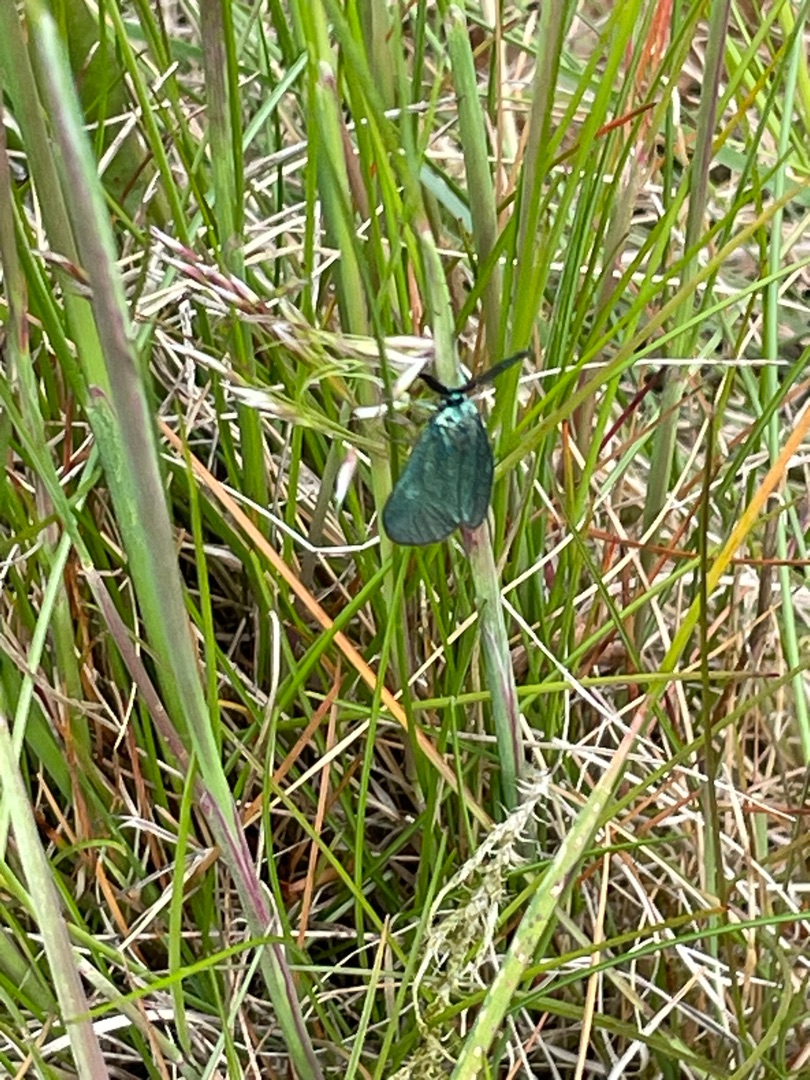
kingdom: Animalia
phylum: Arthropoda
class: Insecta
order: Lepidoptera
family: Zygaenidae
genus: Adscita
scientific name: Adscita statices
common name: Metalvinge
